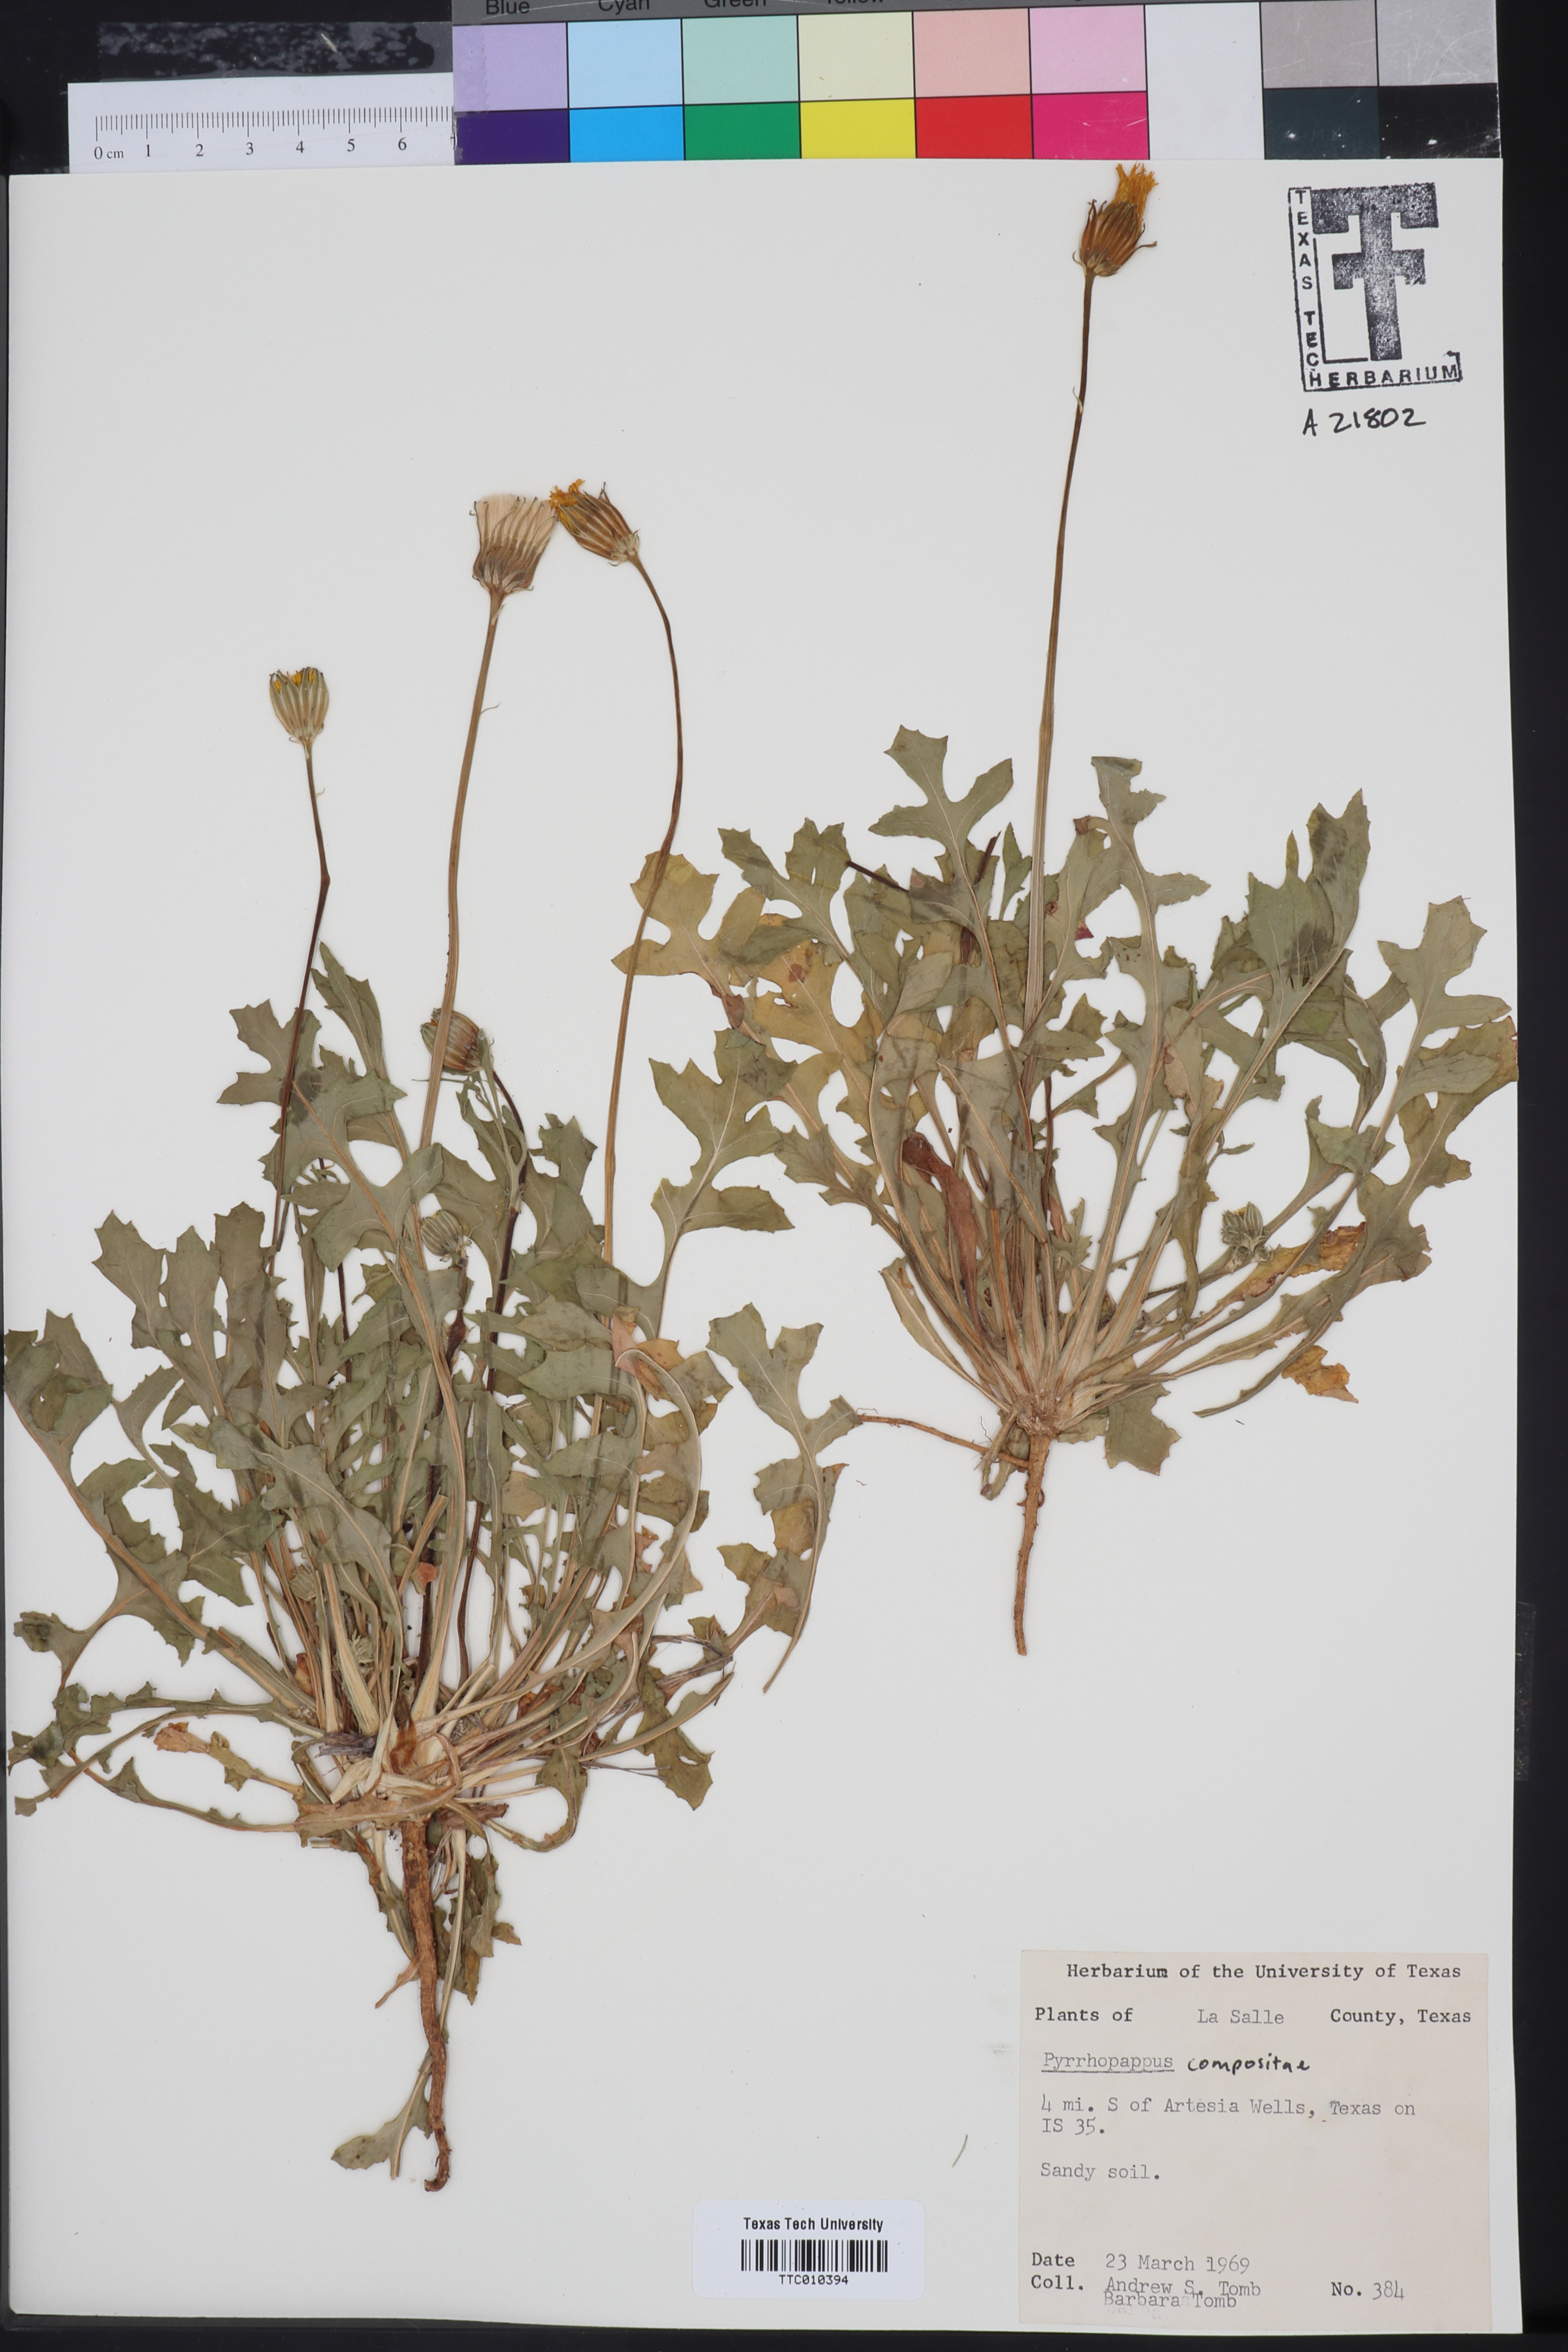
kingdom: Plantae
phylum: Tracheophyta
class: Magnoliopsida
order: Asterales
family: Asteraceae
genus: Pyrrhopappus
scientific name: Pyrrhopappus
